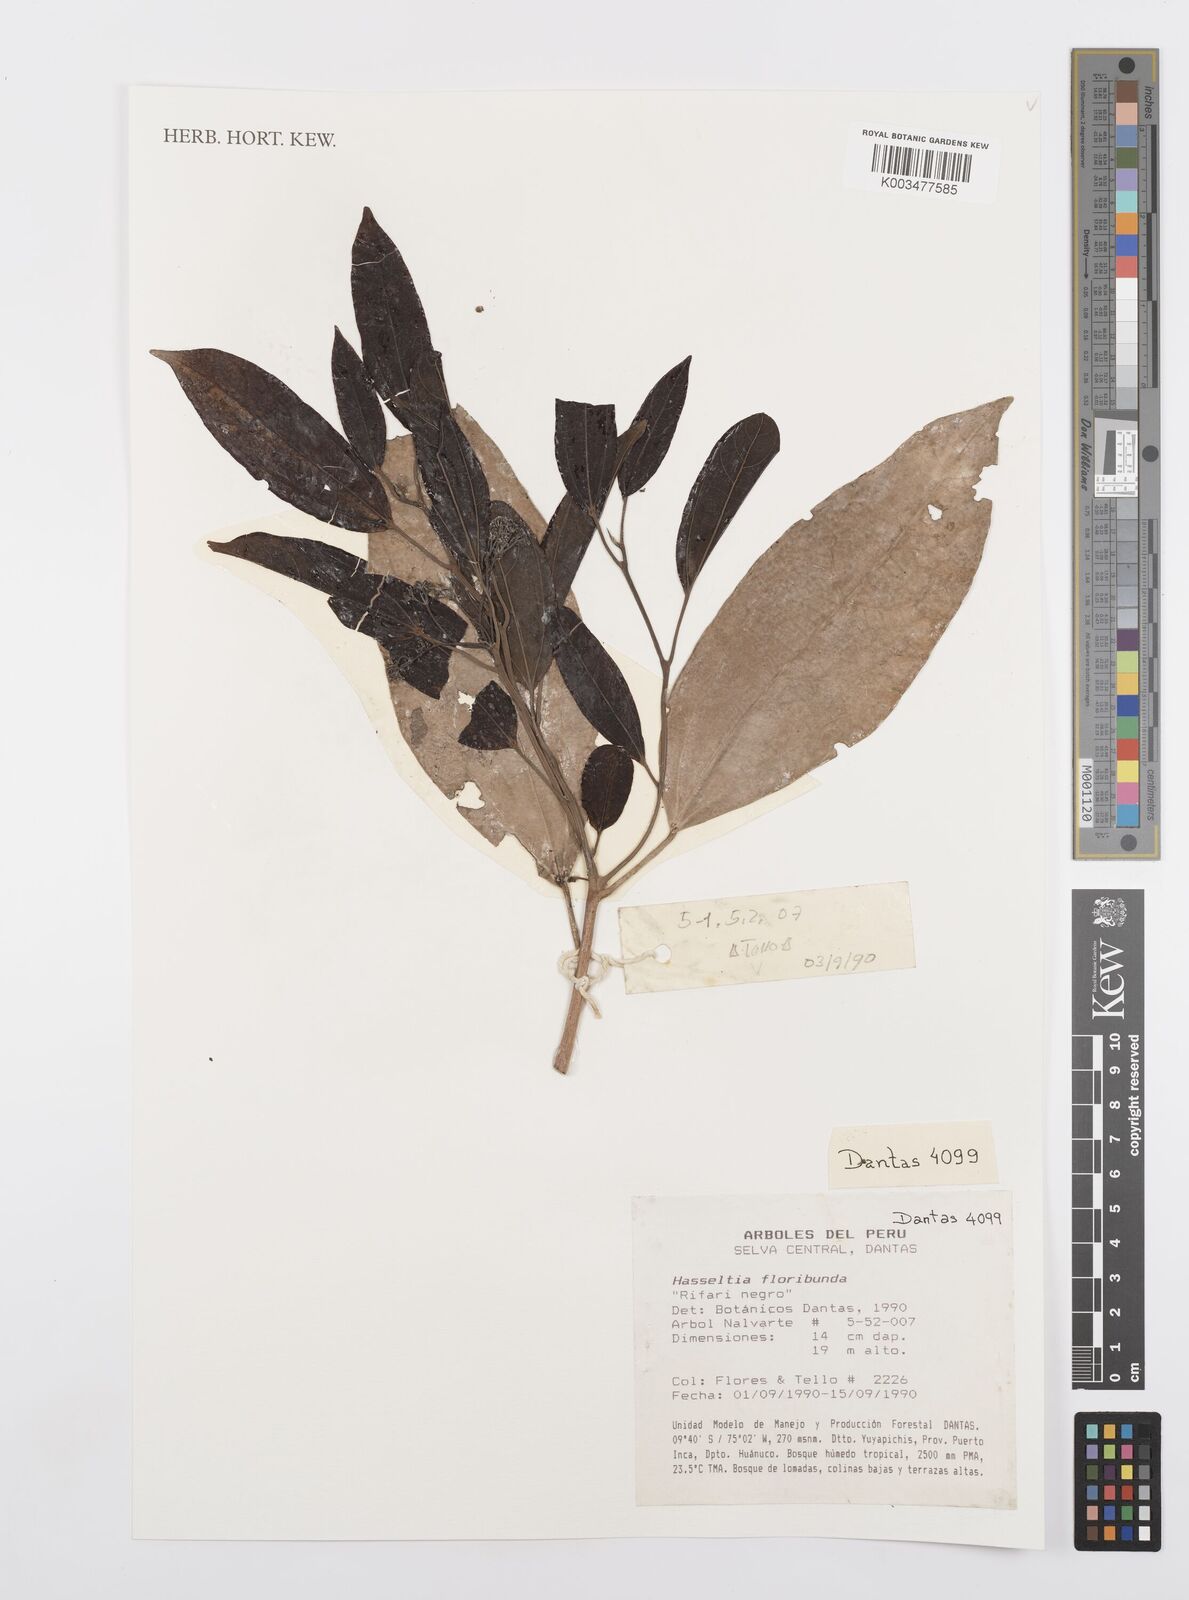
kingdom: Plantae
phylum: Tracheophyta
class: Magnoliopsida
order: Malpighiales
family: Salicaceae
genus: Hasseltia
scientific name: Hasseltia floribunda
